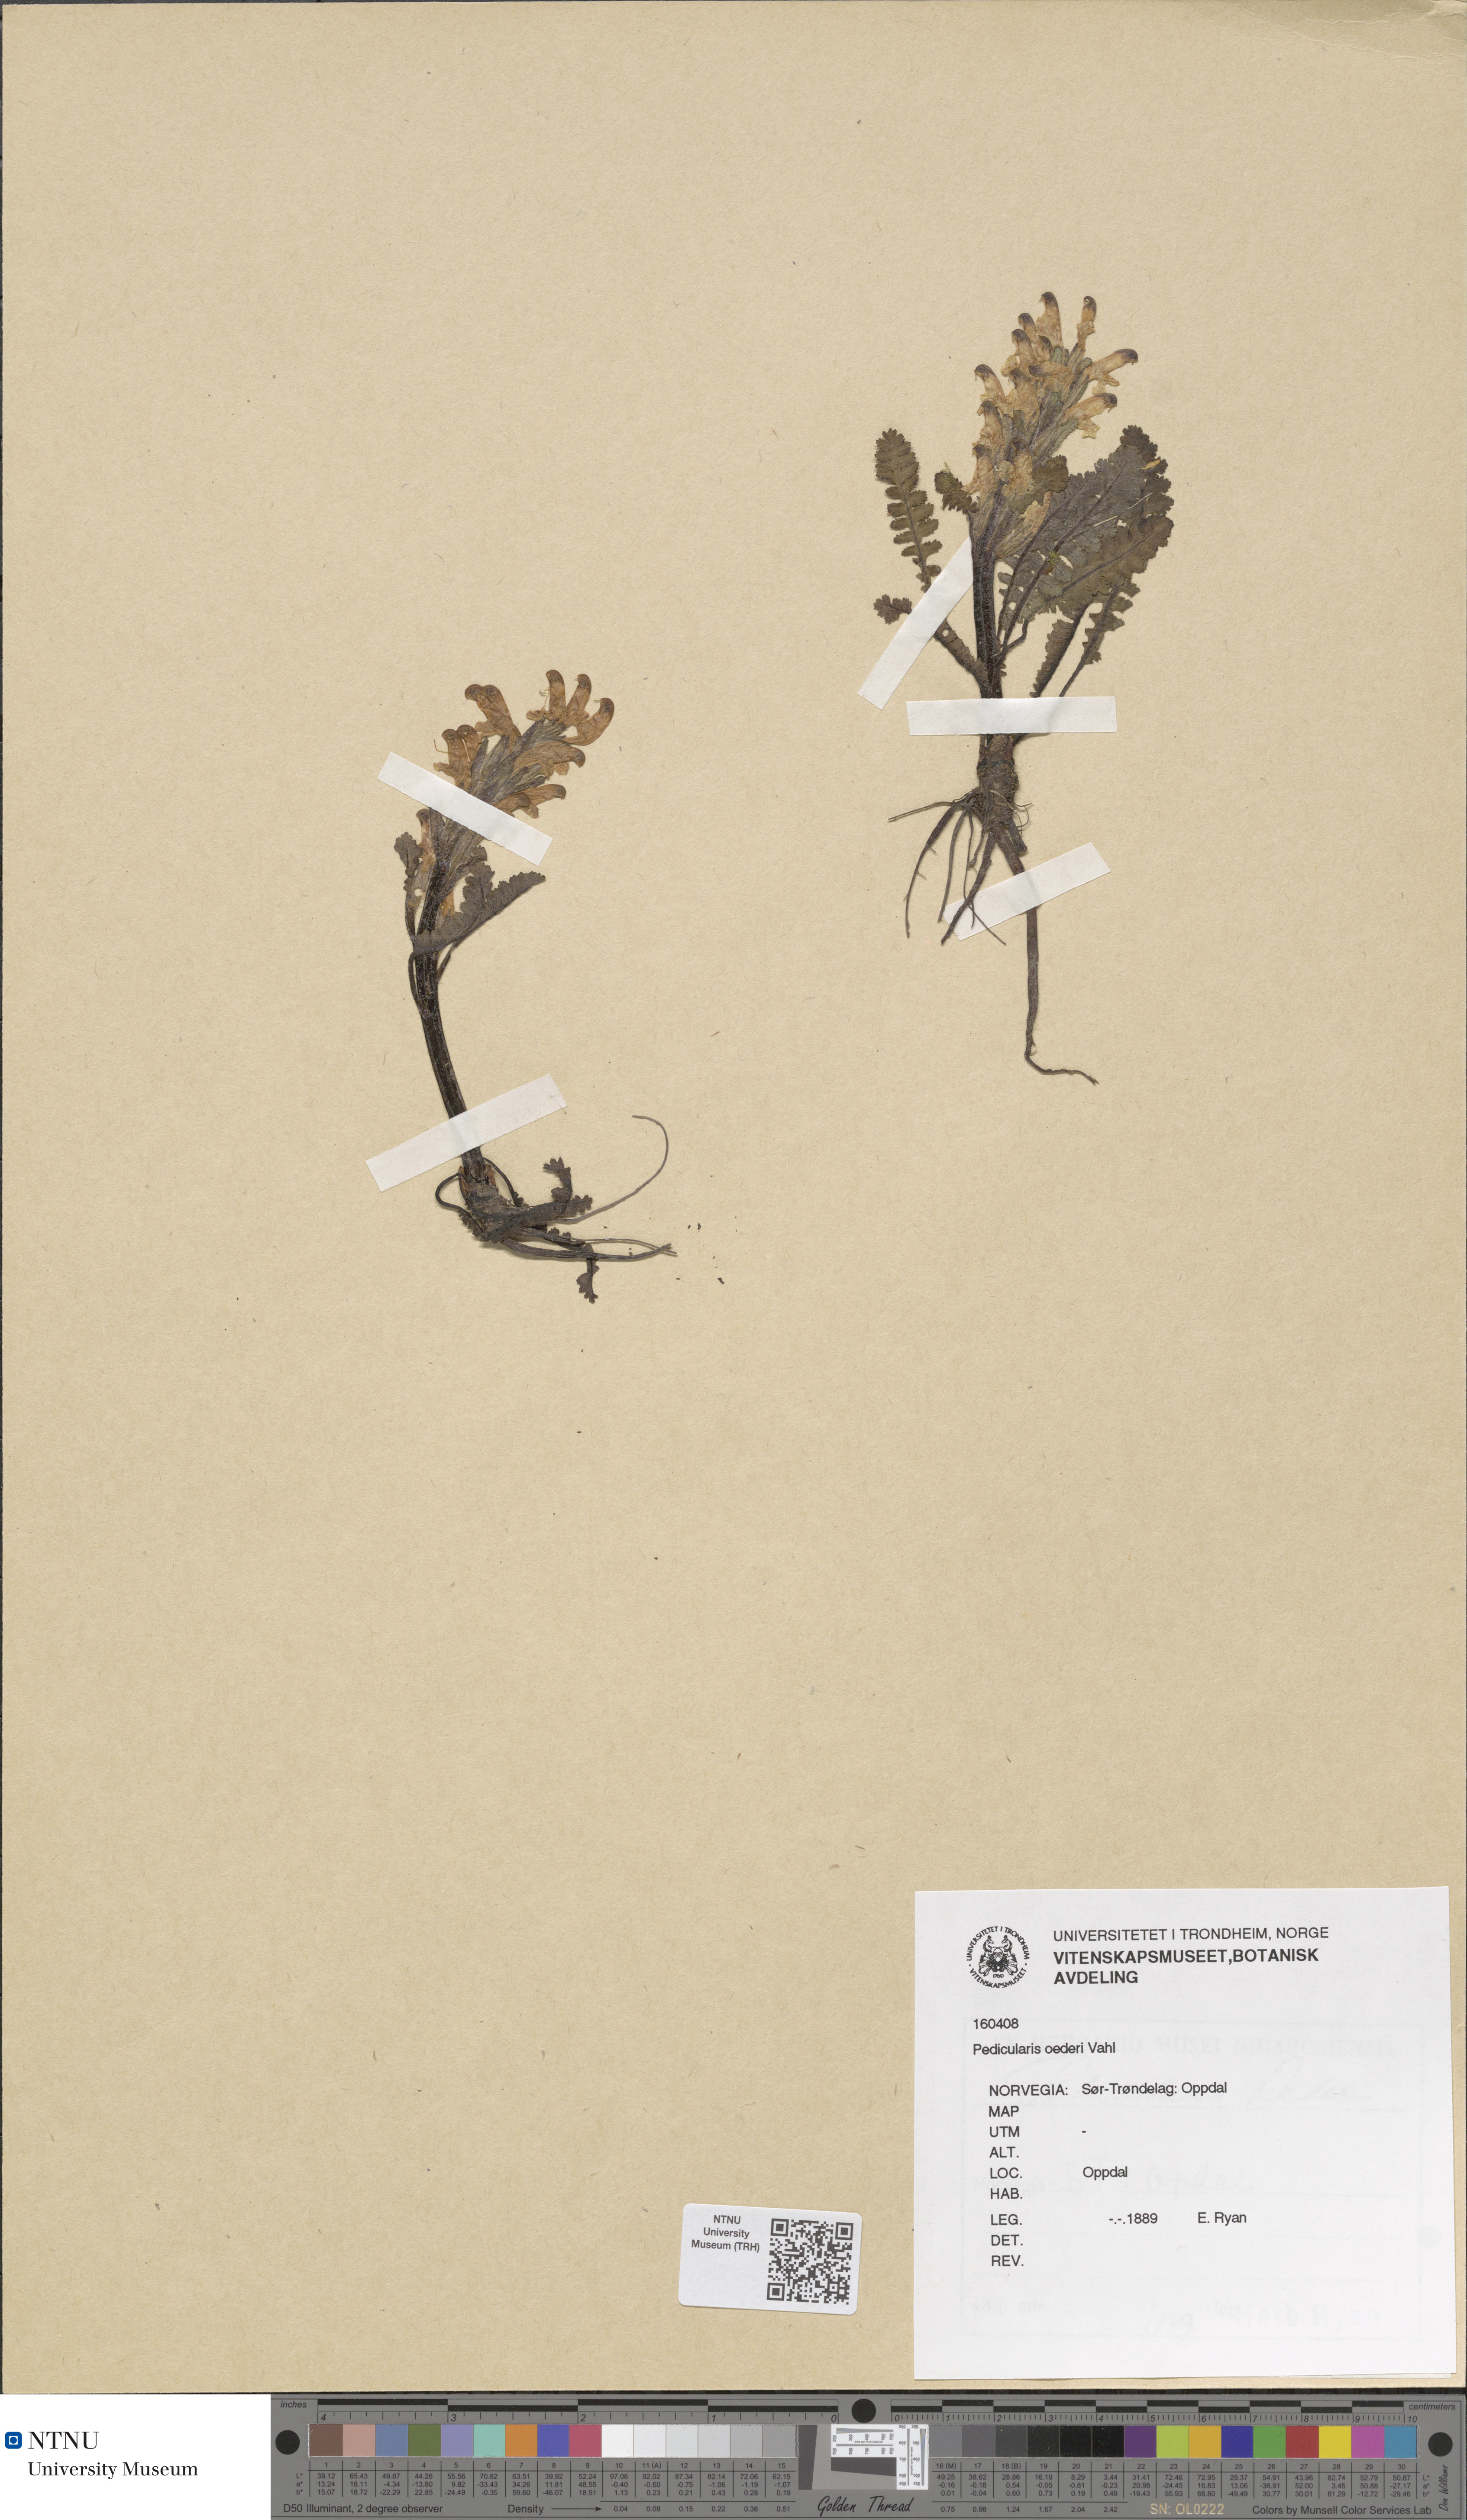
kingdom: Plantae
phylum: Tracheophyta
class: Magnoliopsida
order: Lamiales
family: Orobanchaceae
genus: Pedicularis
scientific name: Pedicularis oederi
